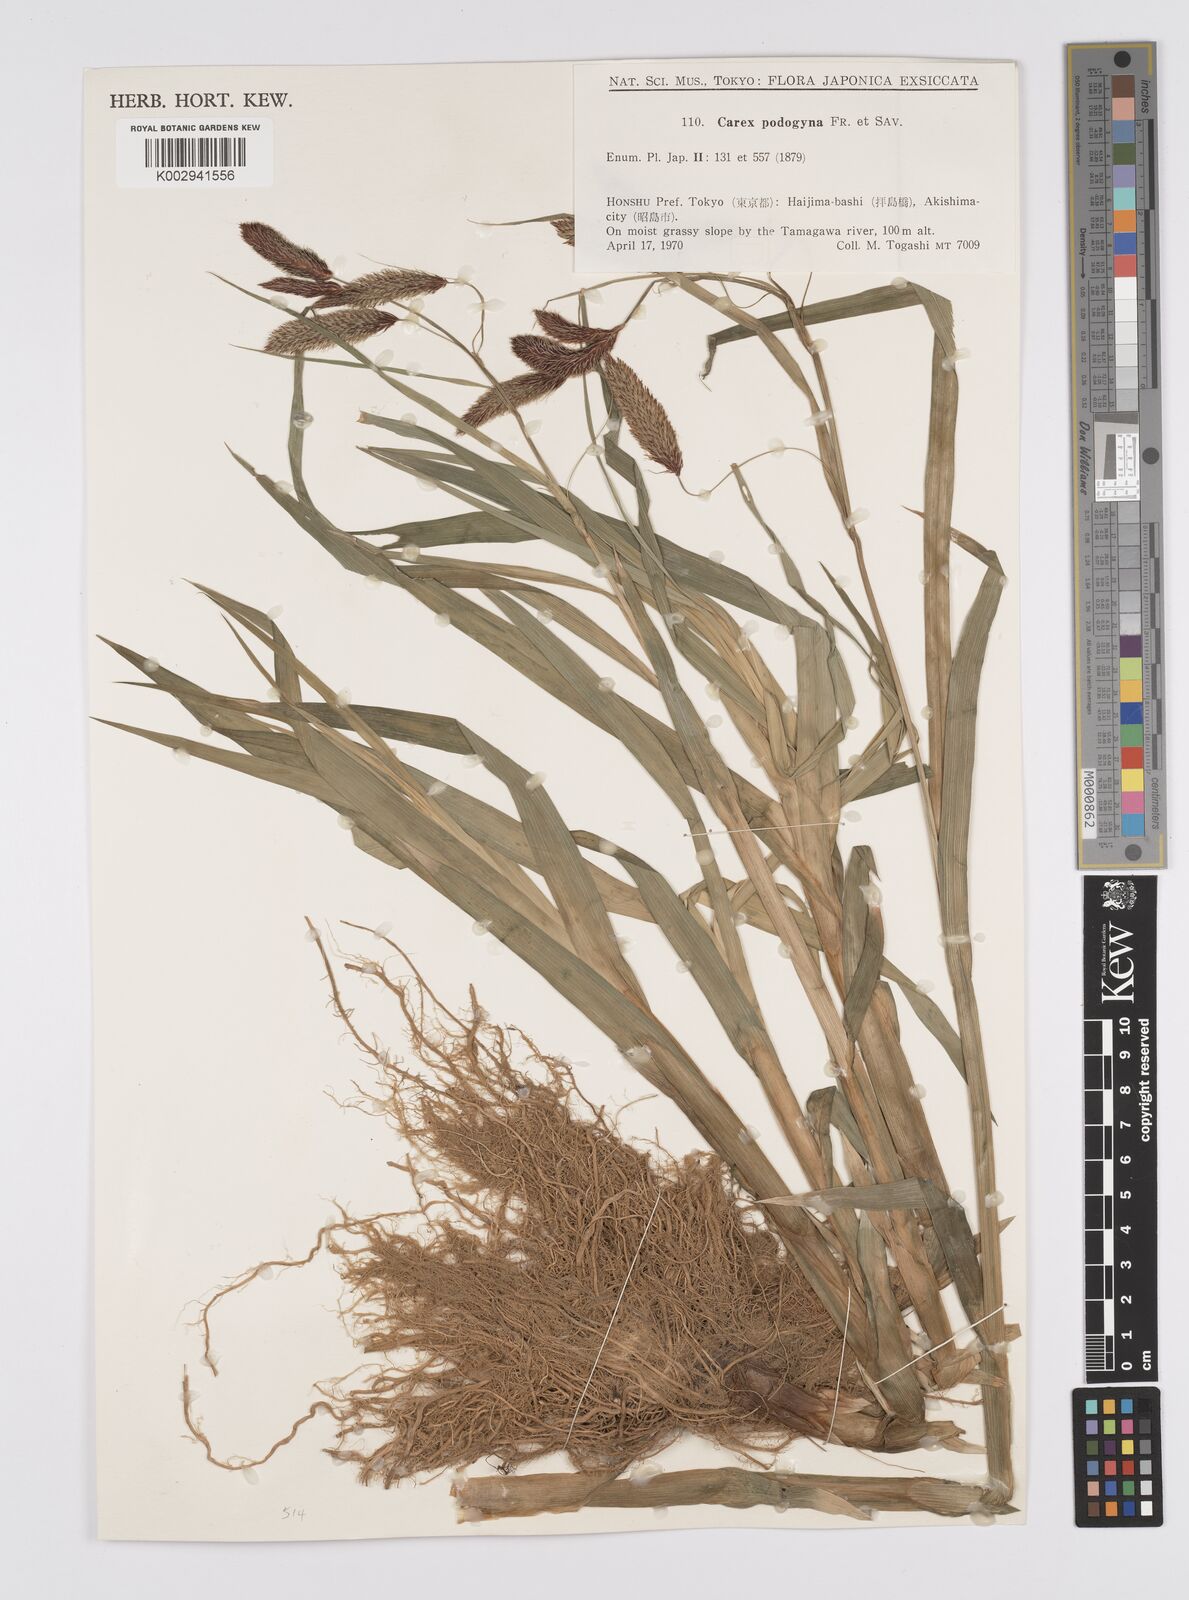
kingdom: Plantae
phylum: Tracheophyta
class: Liliopsida
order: Poales
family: Cyperaceae
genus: Carex
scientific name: Carex podogyna
